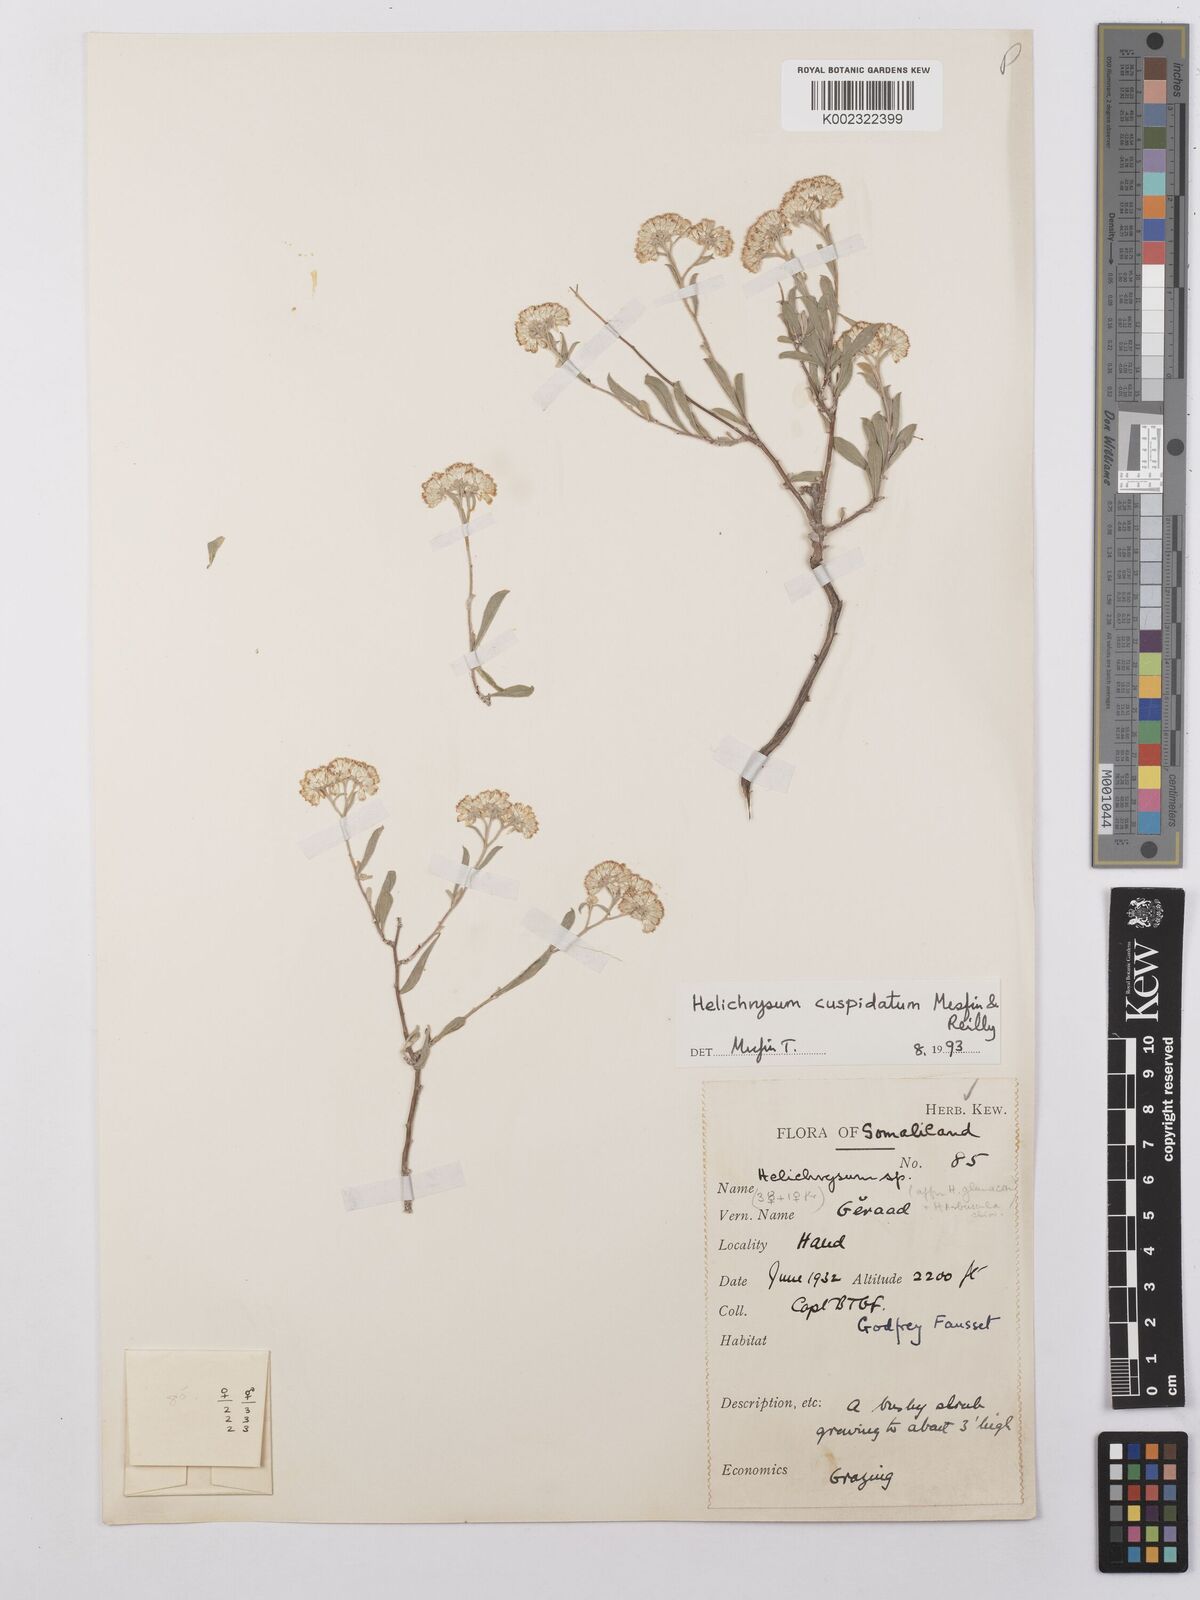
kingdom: Plantae
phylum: Tracheophyta
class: Magnoliopsida
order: Asterales
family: Asteraceae
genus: Helichrysum
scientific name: Helichrysum cuspidatum
